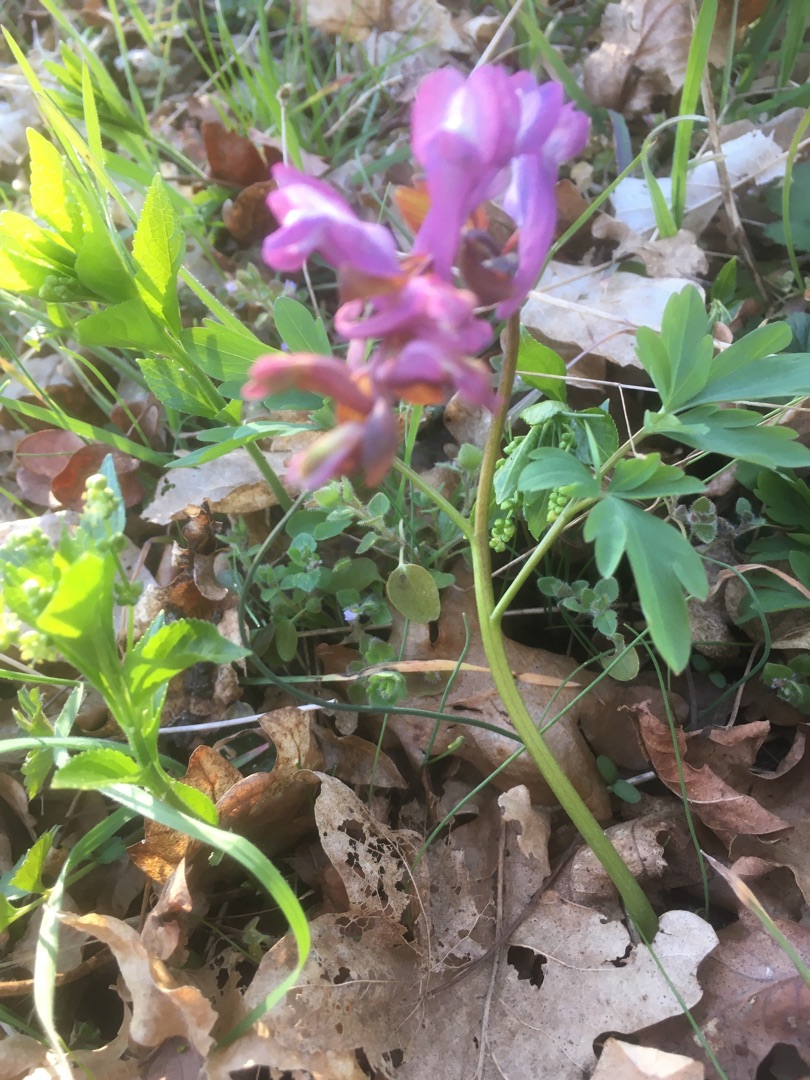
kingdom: Plantae
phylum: Tracheophyta
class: Magnoliopsida
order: Ranunculales
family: Papaveraceae
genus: Corydalis
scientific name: Corydalis cava
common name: Hulrodet lærkespore
